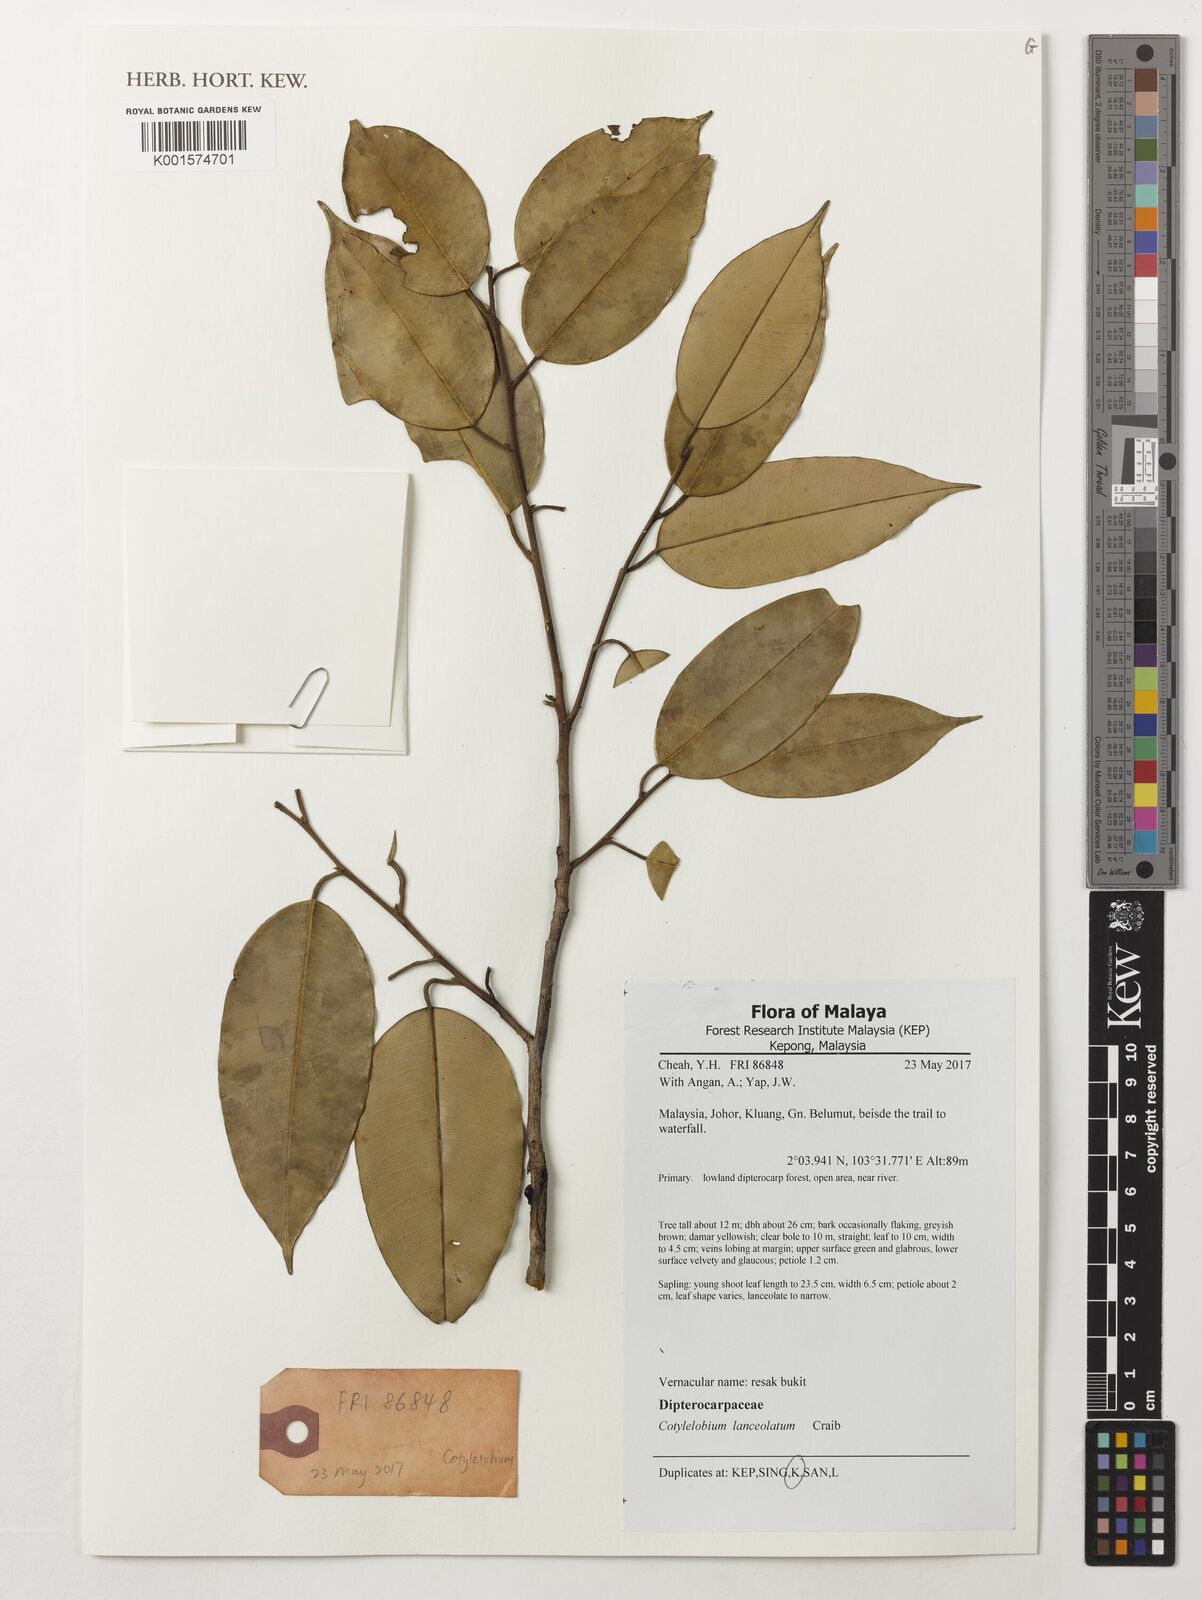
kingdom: Plantae
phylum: Tracheophyta
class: Magnoliopsida
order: Malvales
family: Dipterocarpaceae
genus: Cotylelobium
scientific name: Cotylelobium lanceolatum
